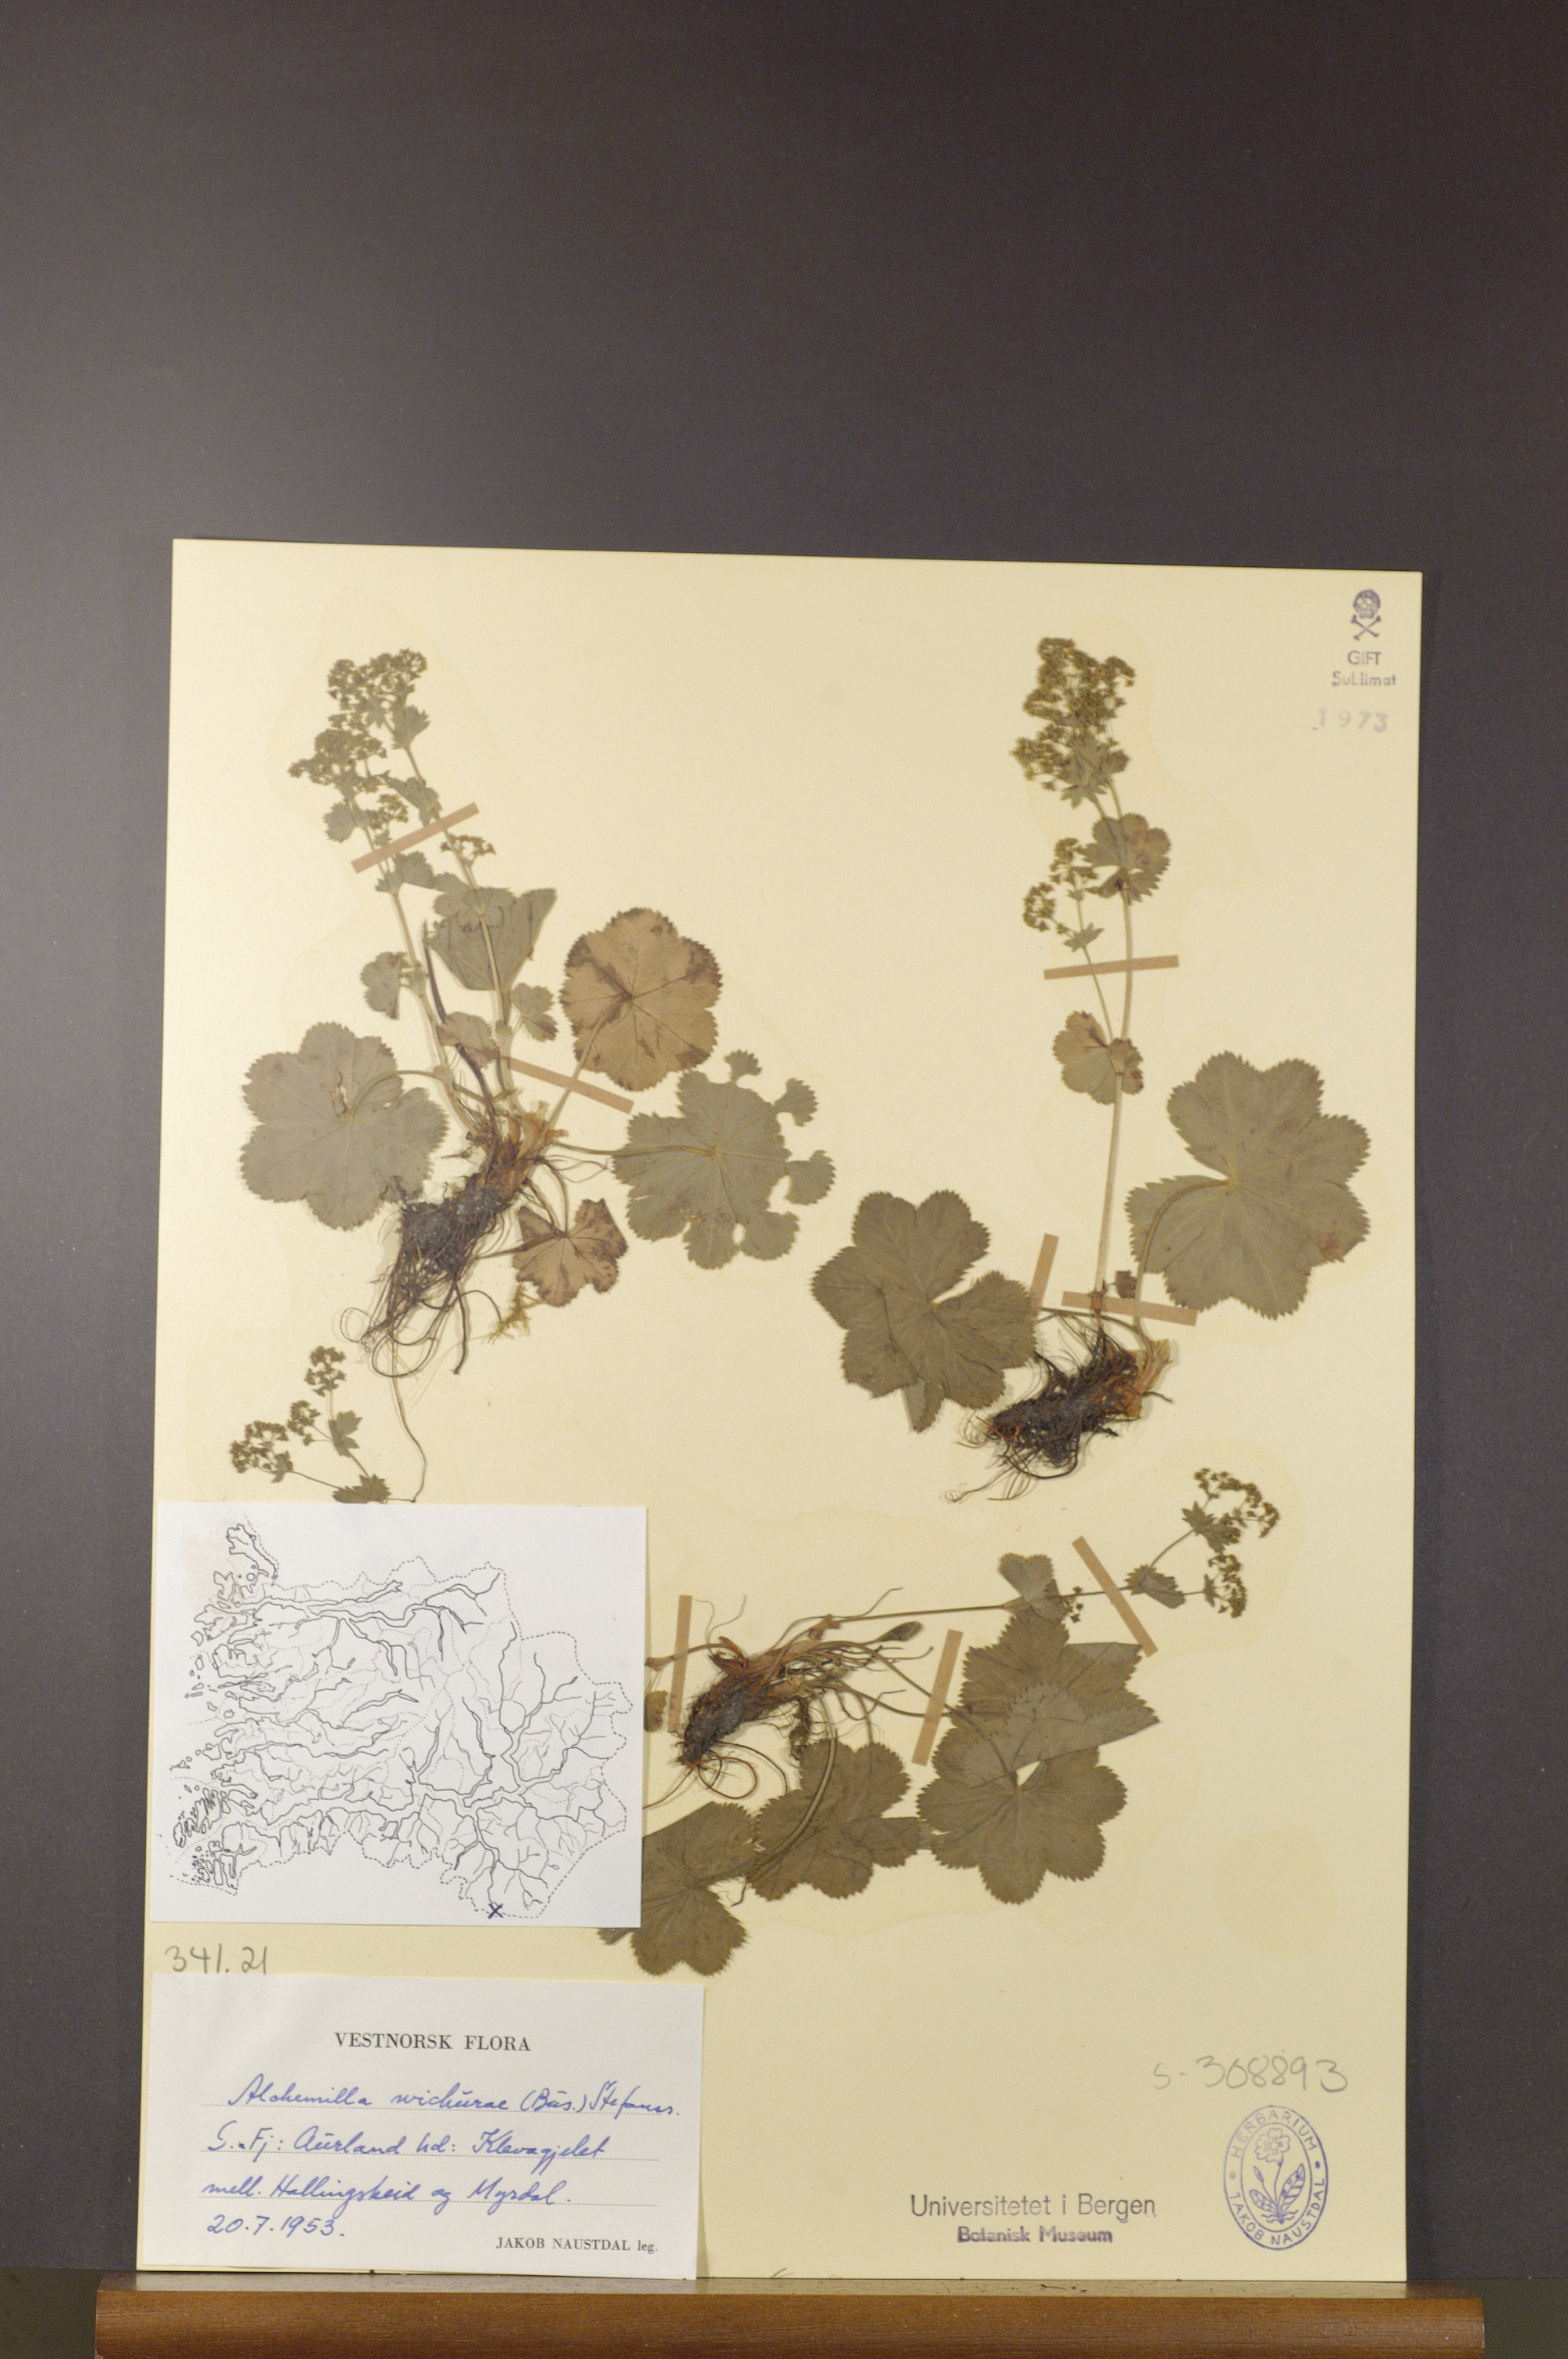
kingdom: Plantae
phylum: Tracheophyta
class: Magnoliopsida
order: Rosales
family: Rosaceae
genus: Alchemilla
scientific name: Alchemilla wichurae
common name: Rock lady's mantle
